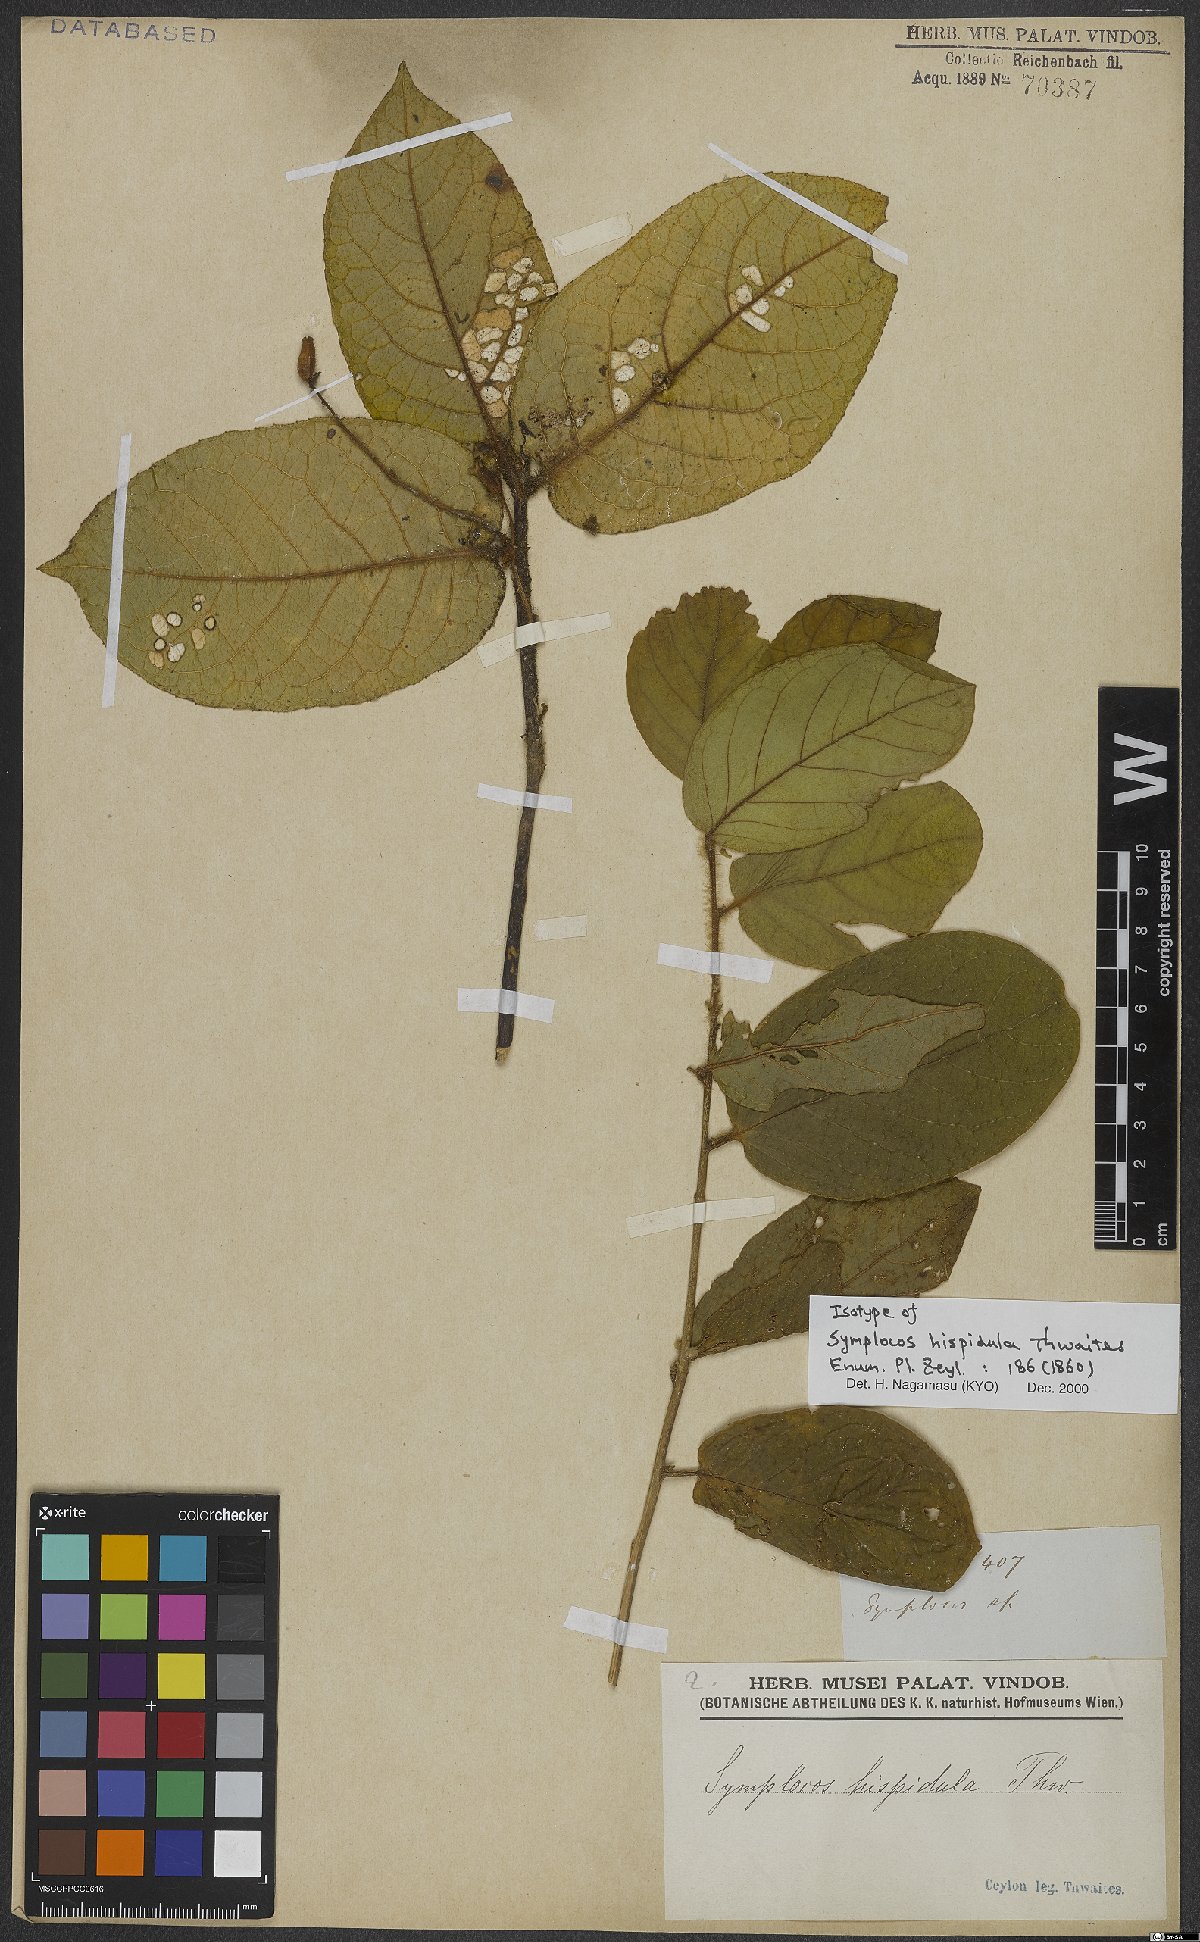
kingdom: Plantae
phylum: Tracheophyta
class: Magnoliopsida
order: Ericales
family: Symplocaceae
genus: Symplocos
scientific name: Symplocos pulchra
